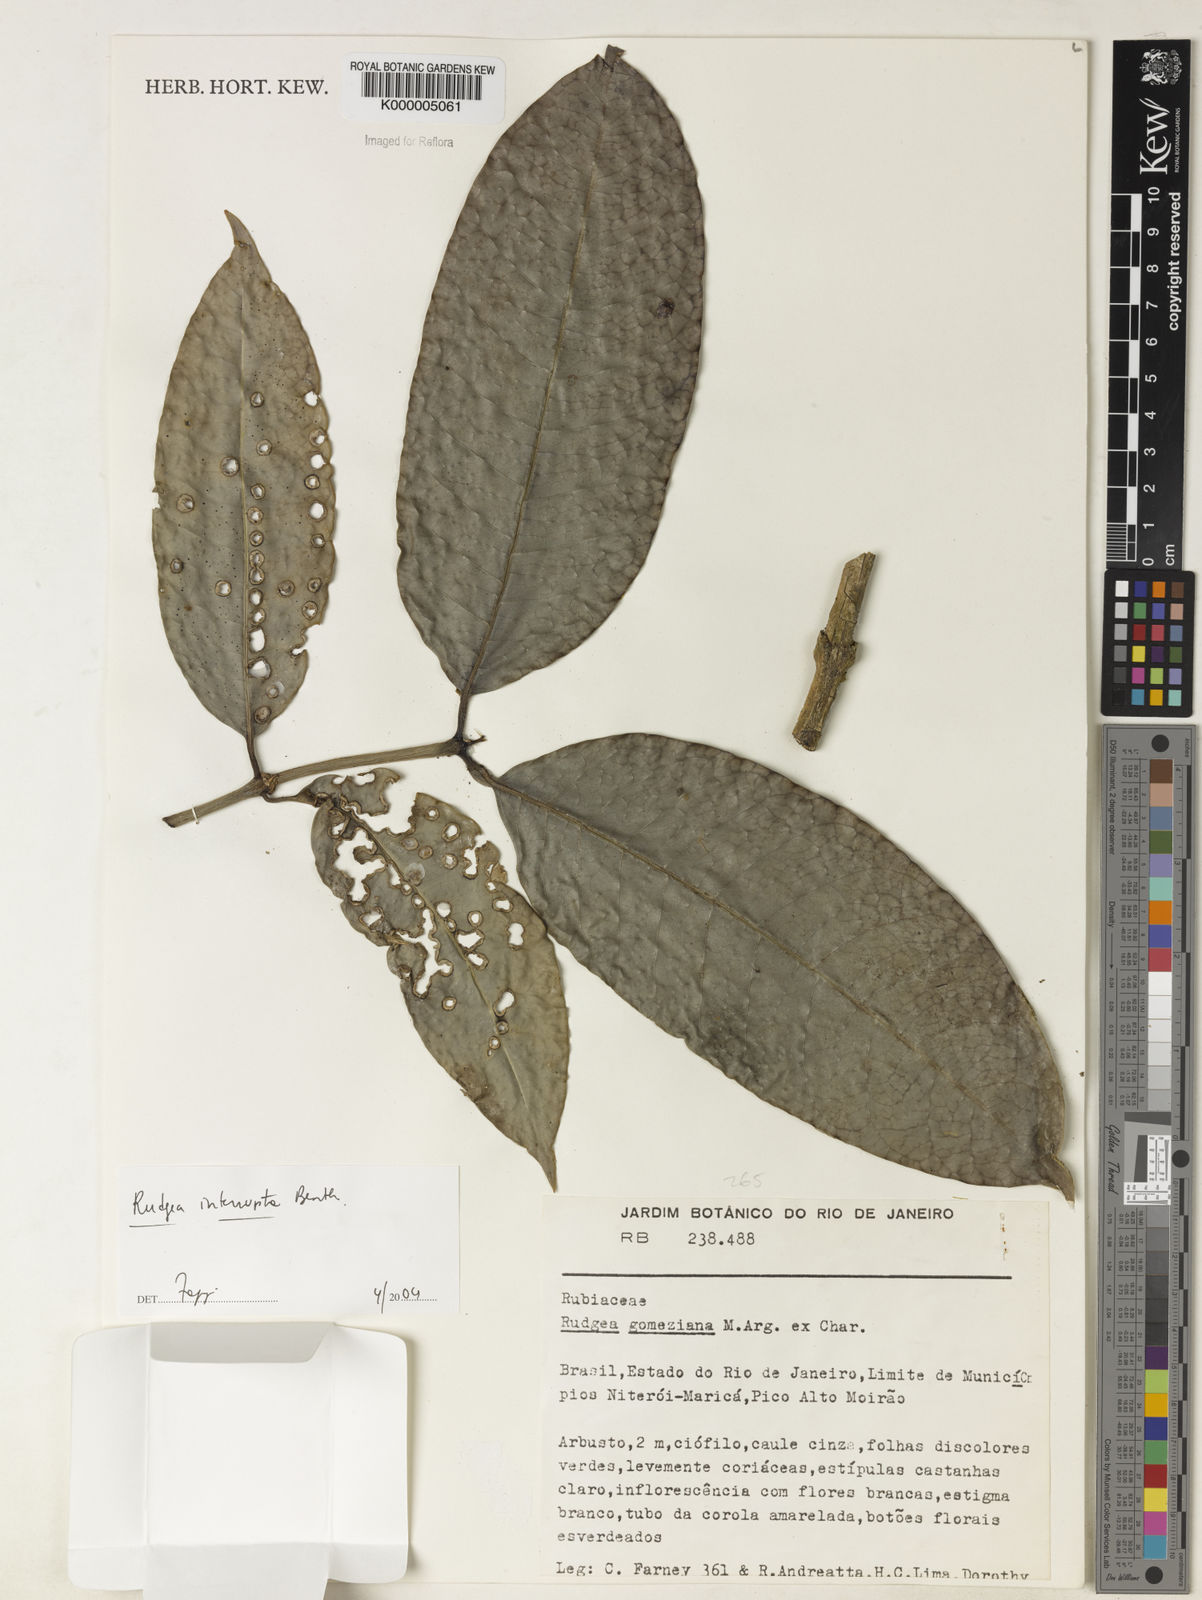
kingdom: Plantae
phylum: Tracheophyta
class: Magnoliopsida
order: Gentianales
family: Rubiaceae
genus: Rudgea
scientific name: Rudgea interrupta
